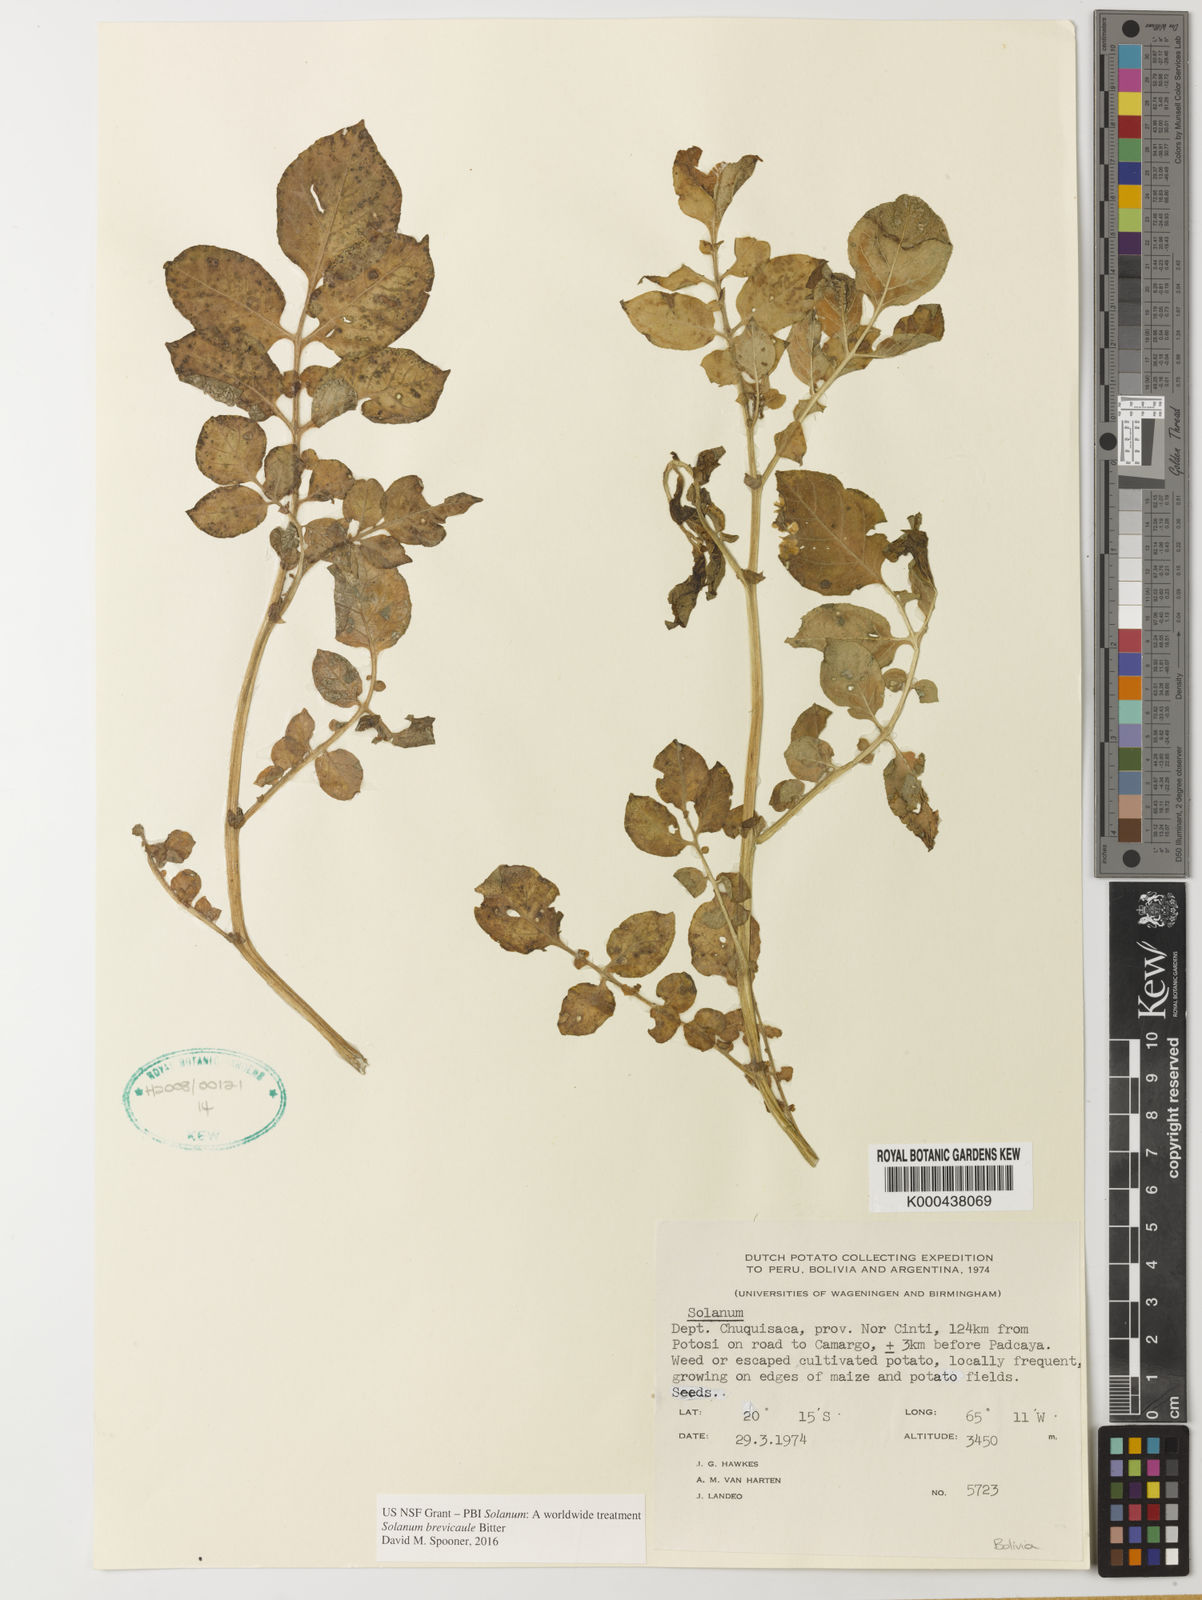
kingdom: Plantae
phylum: Tracheophyta
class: Magnoliopsida
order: Solanales
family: Solanaceae
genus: Solanum
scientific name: Solanum brevicaule
